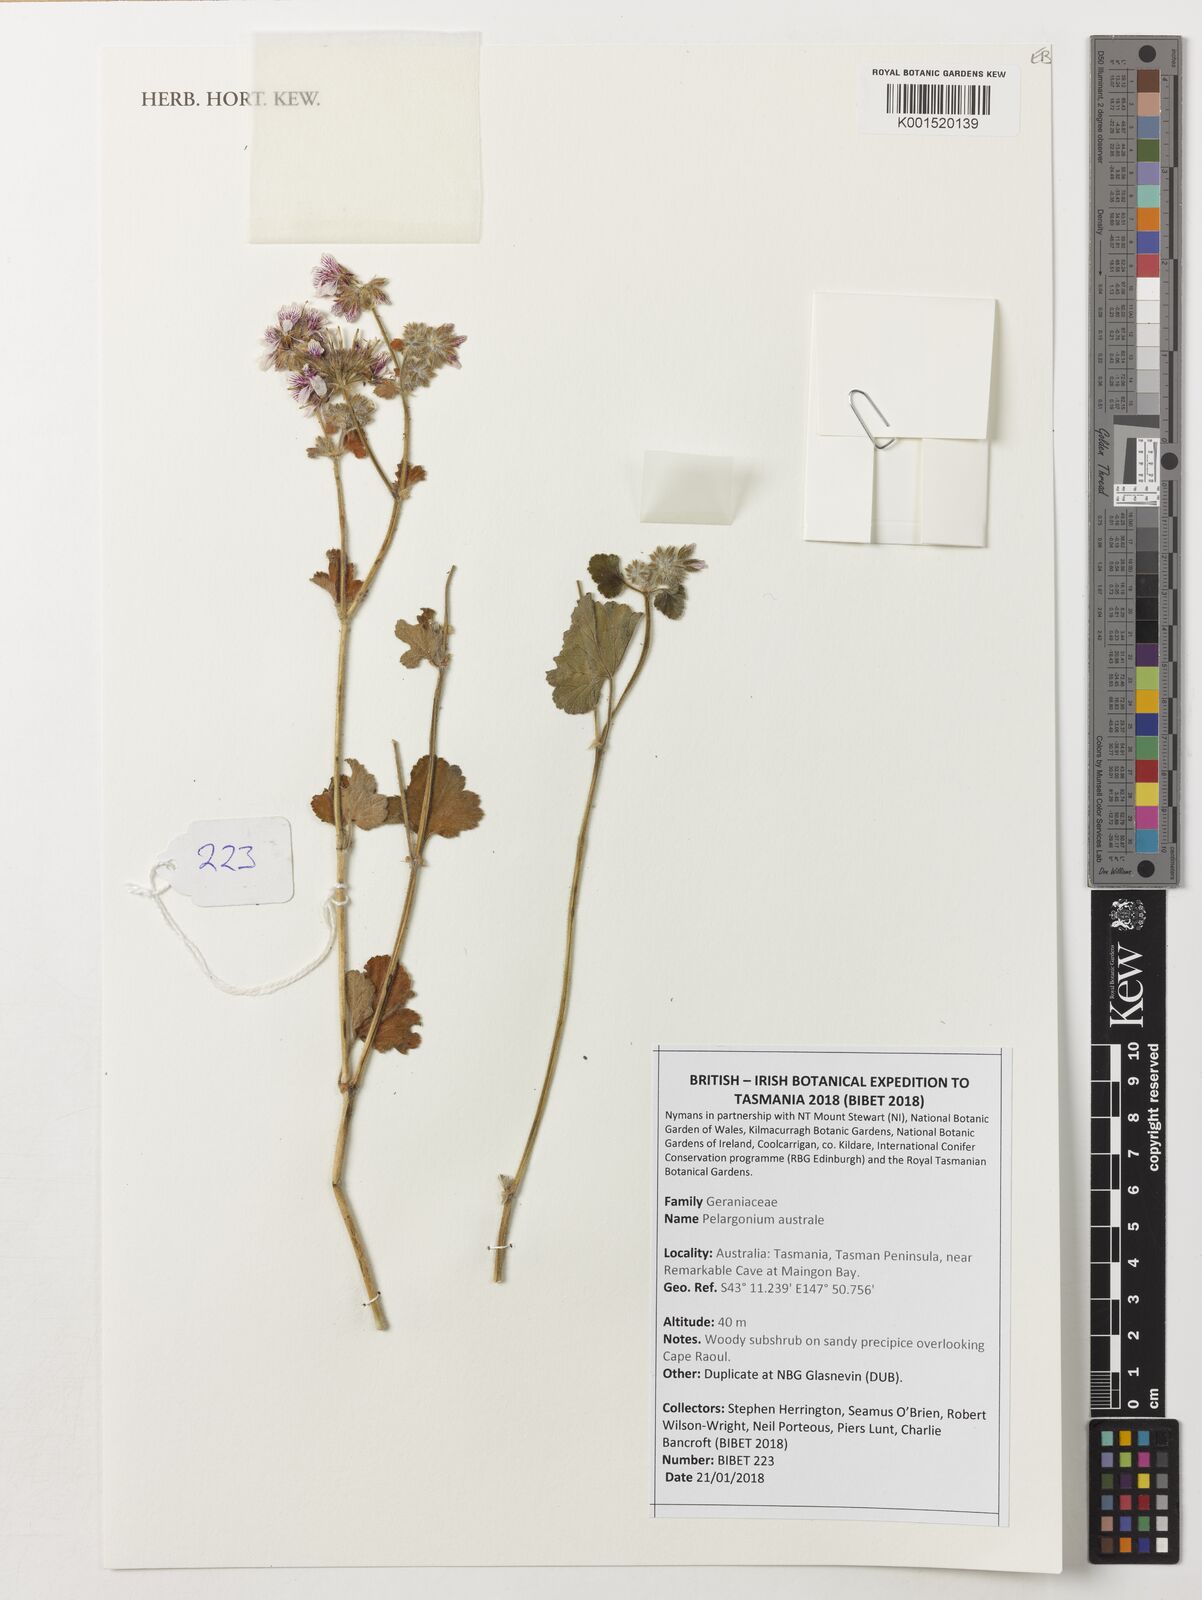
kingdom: Plantae
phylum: Tracheophyta
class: Magnoliopsida
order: Geraniales
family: Geraniaceae
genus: Pelargonium
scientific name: Pelargonium australe
